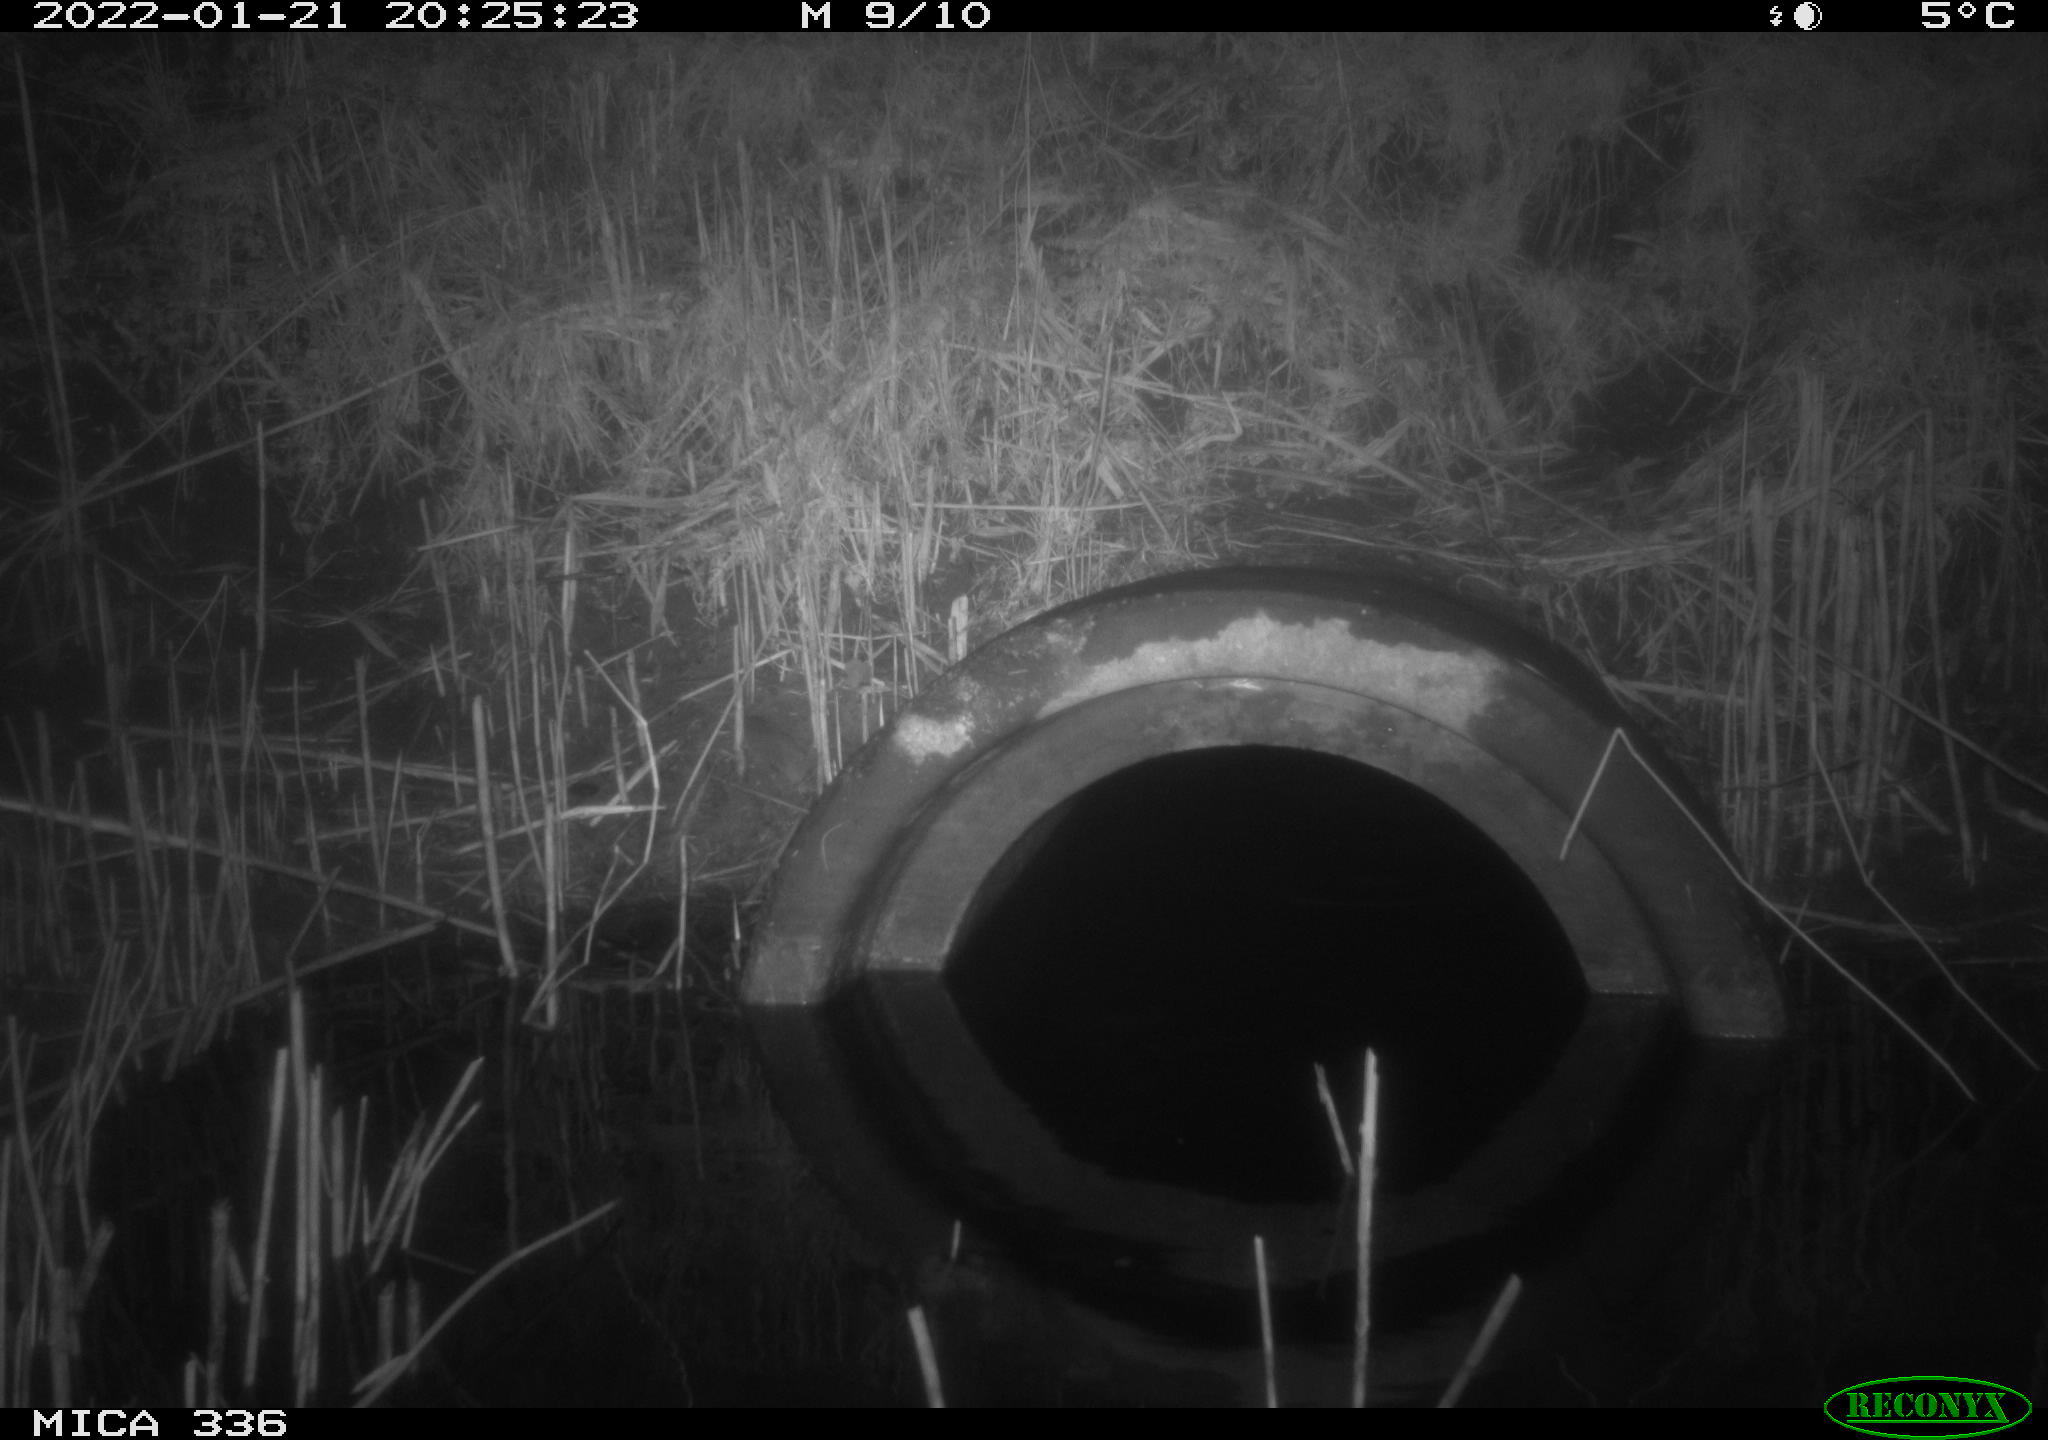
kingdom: Animalia
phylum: Chordata
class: Mammalia
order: Rodentia
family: Muridae
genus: Rattus
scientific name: Rattus norvegicus
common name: Brown rat
